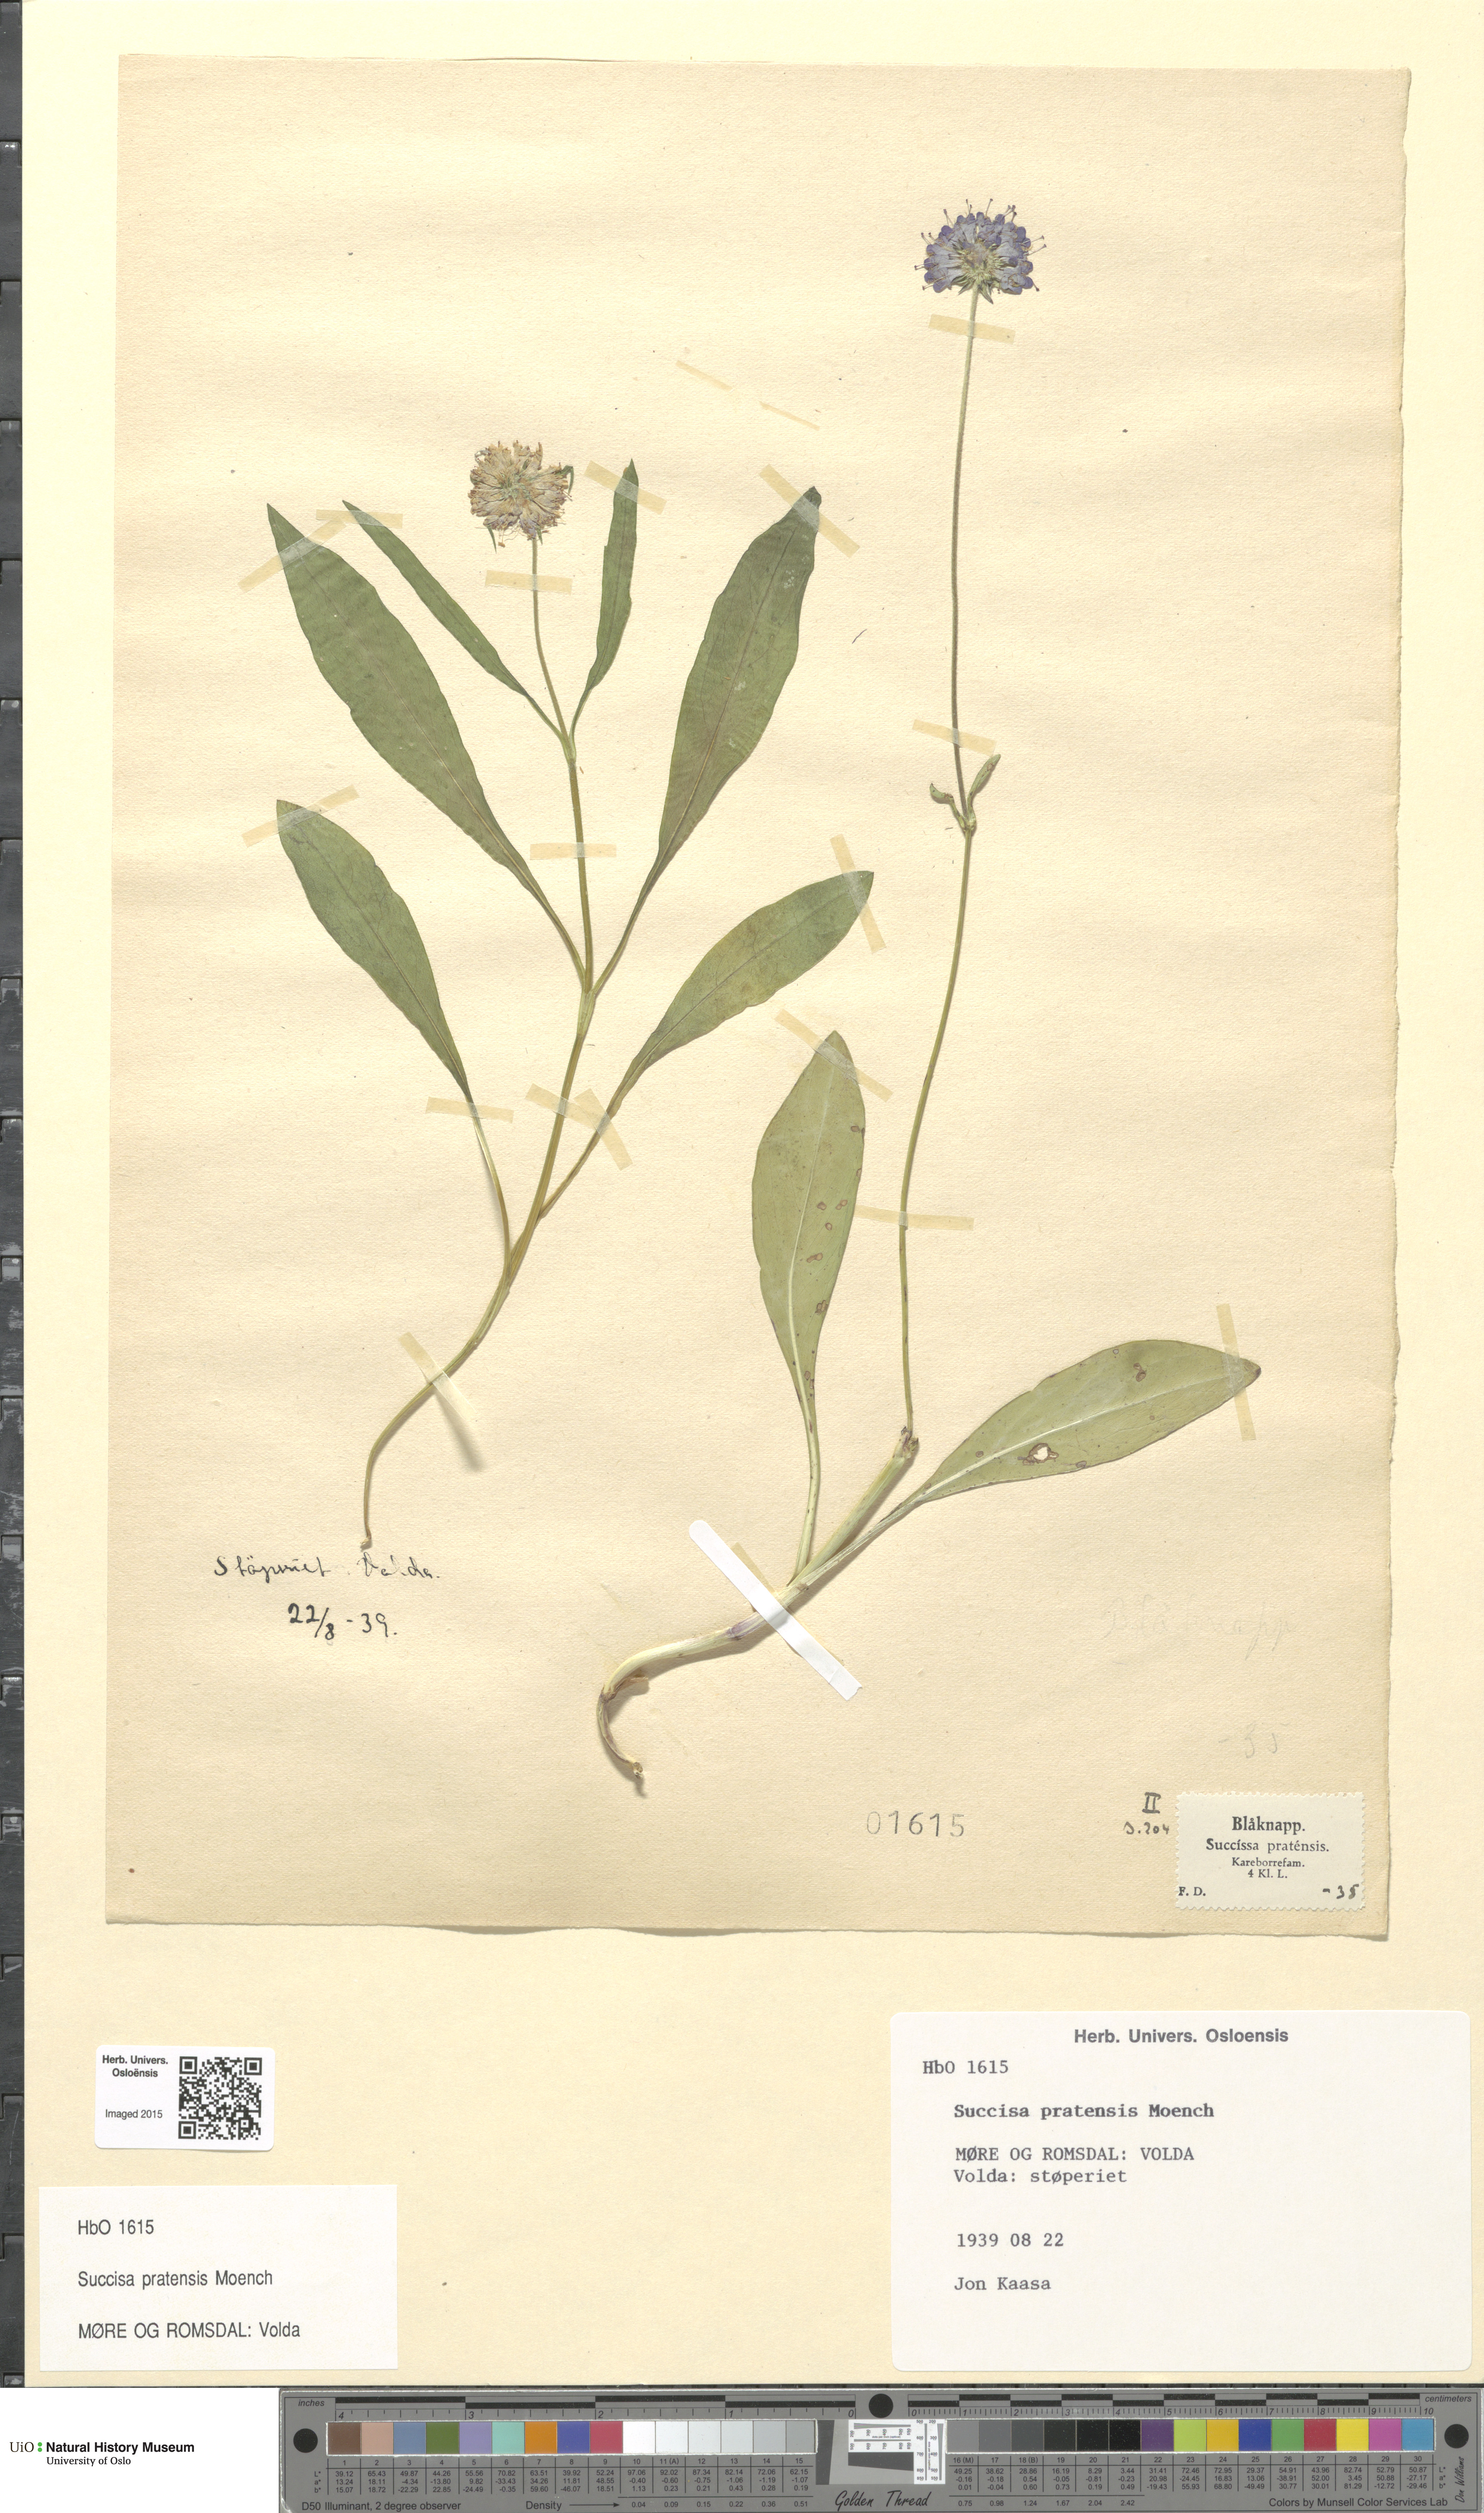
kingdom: Plantae
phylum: Tracheophyta
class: Magnoliopsida
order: Dipsacales
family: Caprifoliaceae
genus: Succisa
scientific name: Succisa pratensis
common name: Devil's-bit
